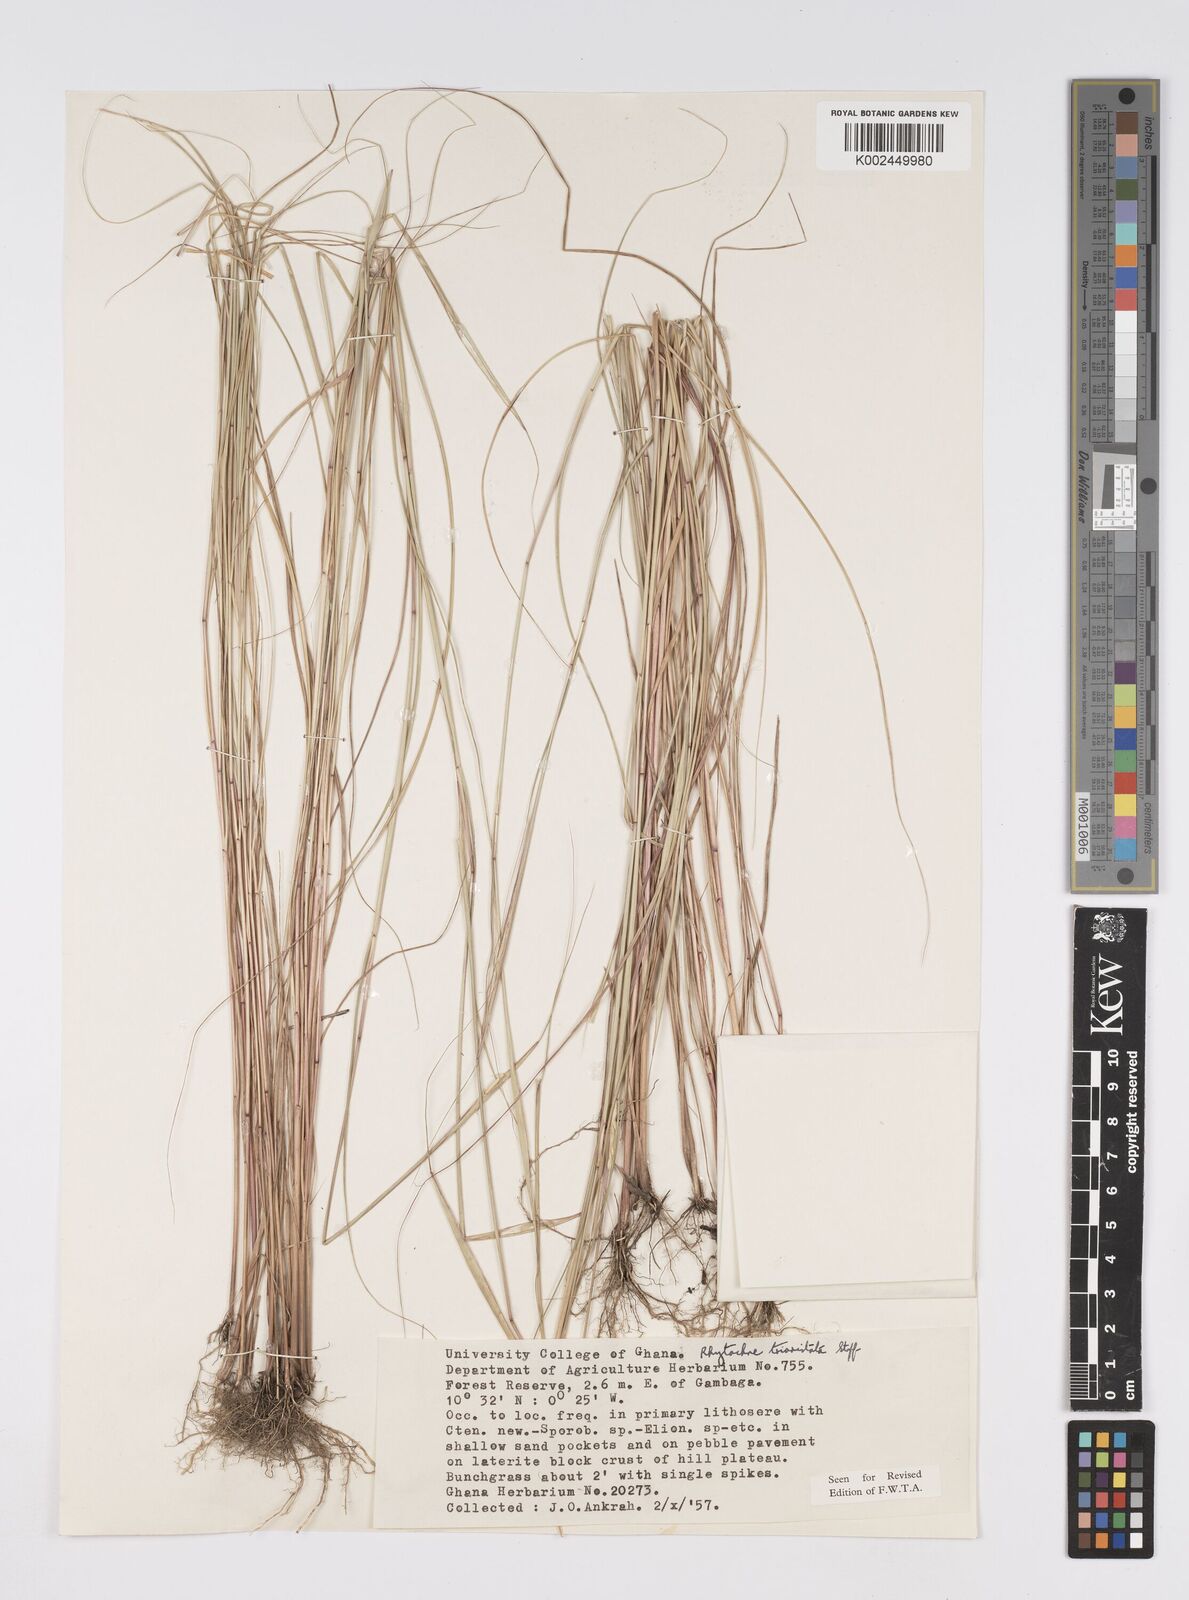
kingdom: Plantae
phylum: Tracheophyta
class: Liliopsida
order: Poales
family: Poaceae
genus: Rhytachne
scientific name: Rhytachne triaristata
